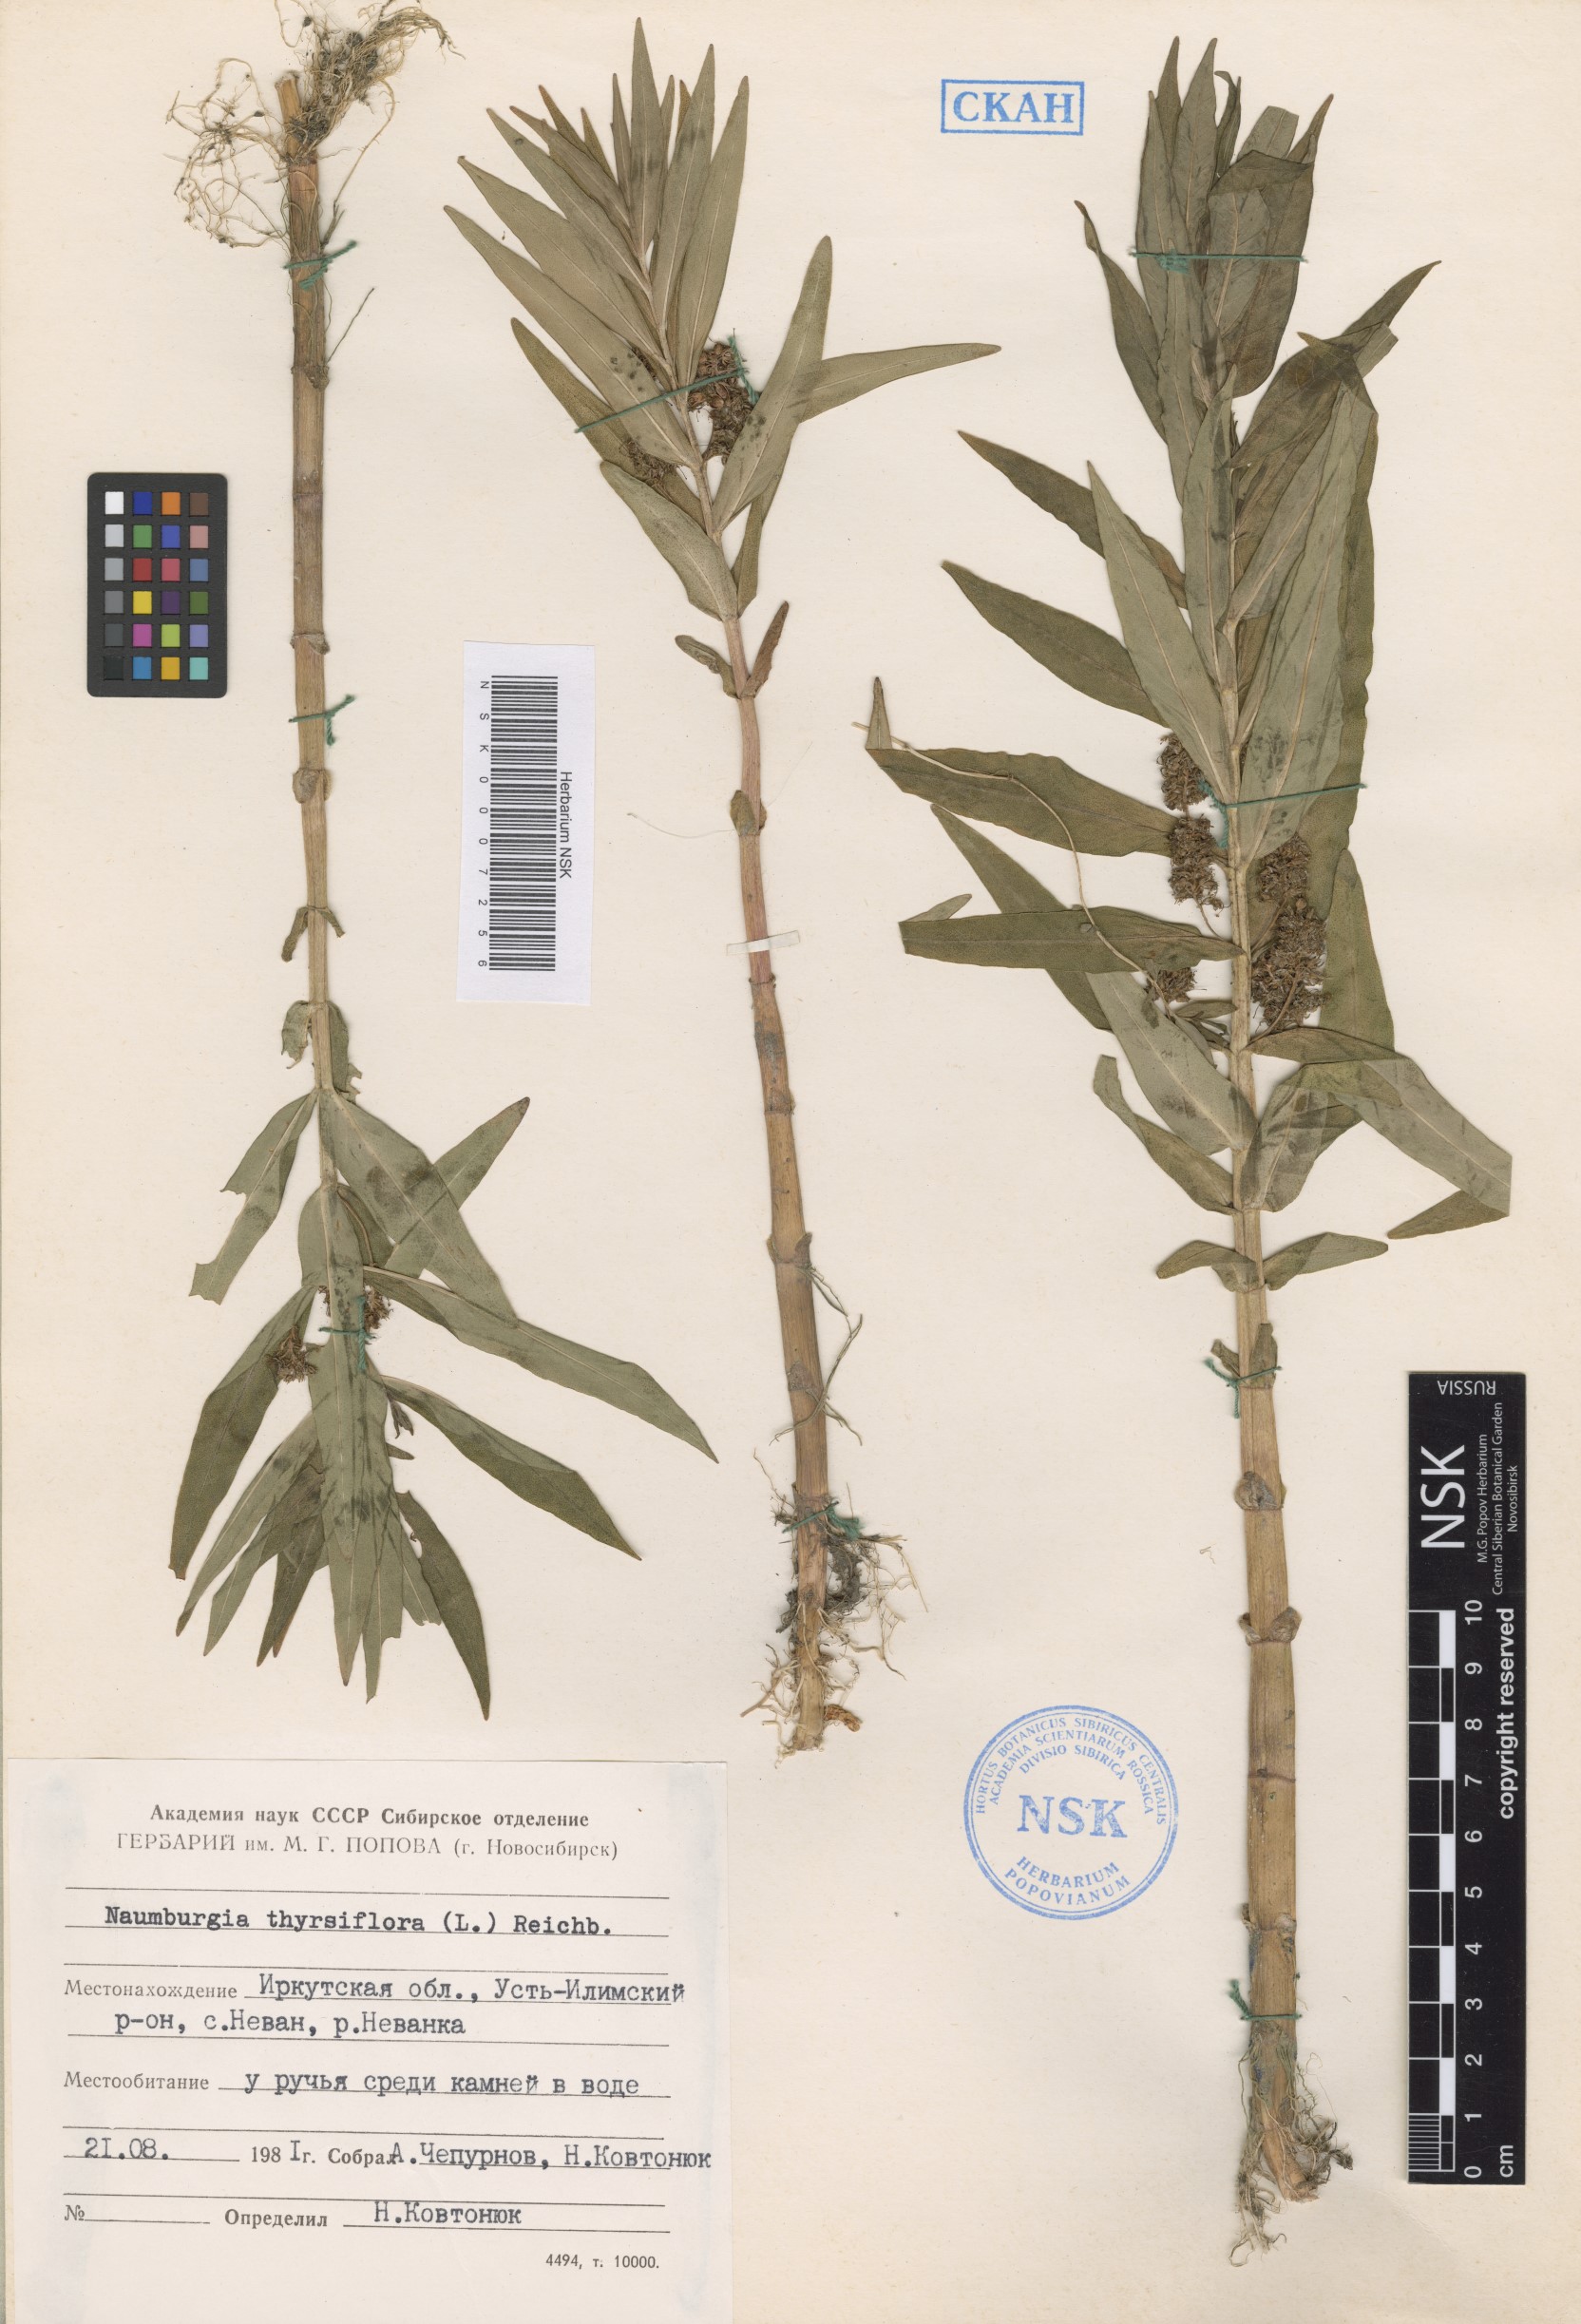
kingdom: Plantae
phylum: Tracheophyta
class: Magnoliopsida
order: Ericales
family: Primulaceae
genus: Lysimachia
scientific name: Lysimachia thyrsiflora
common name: Tufted loosestrife
